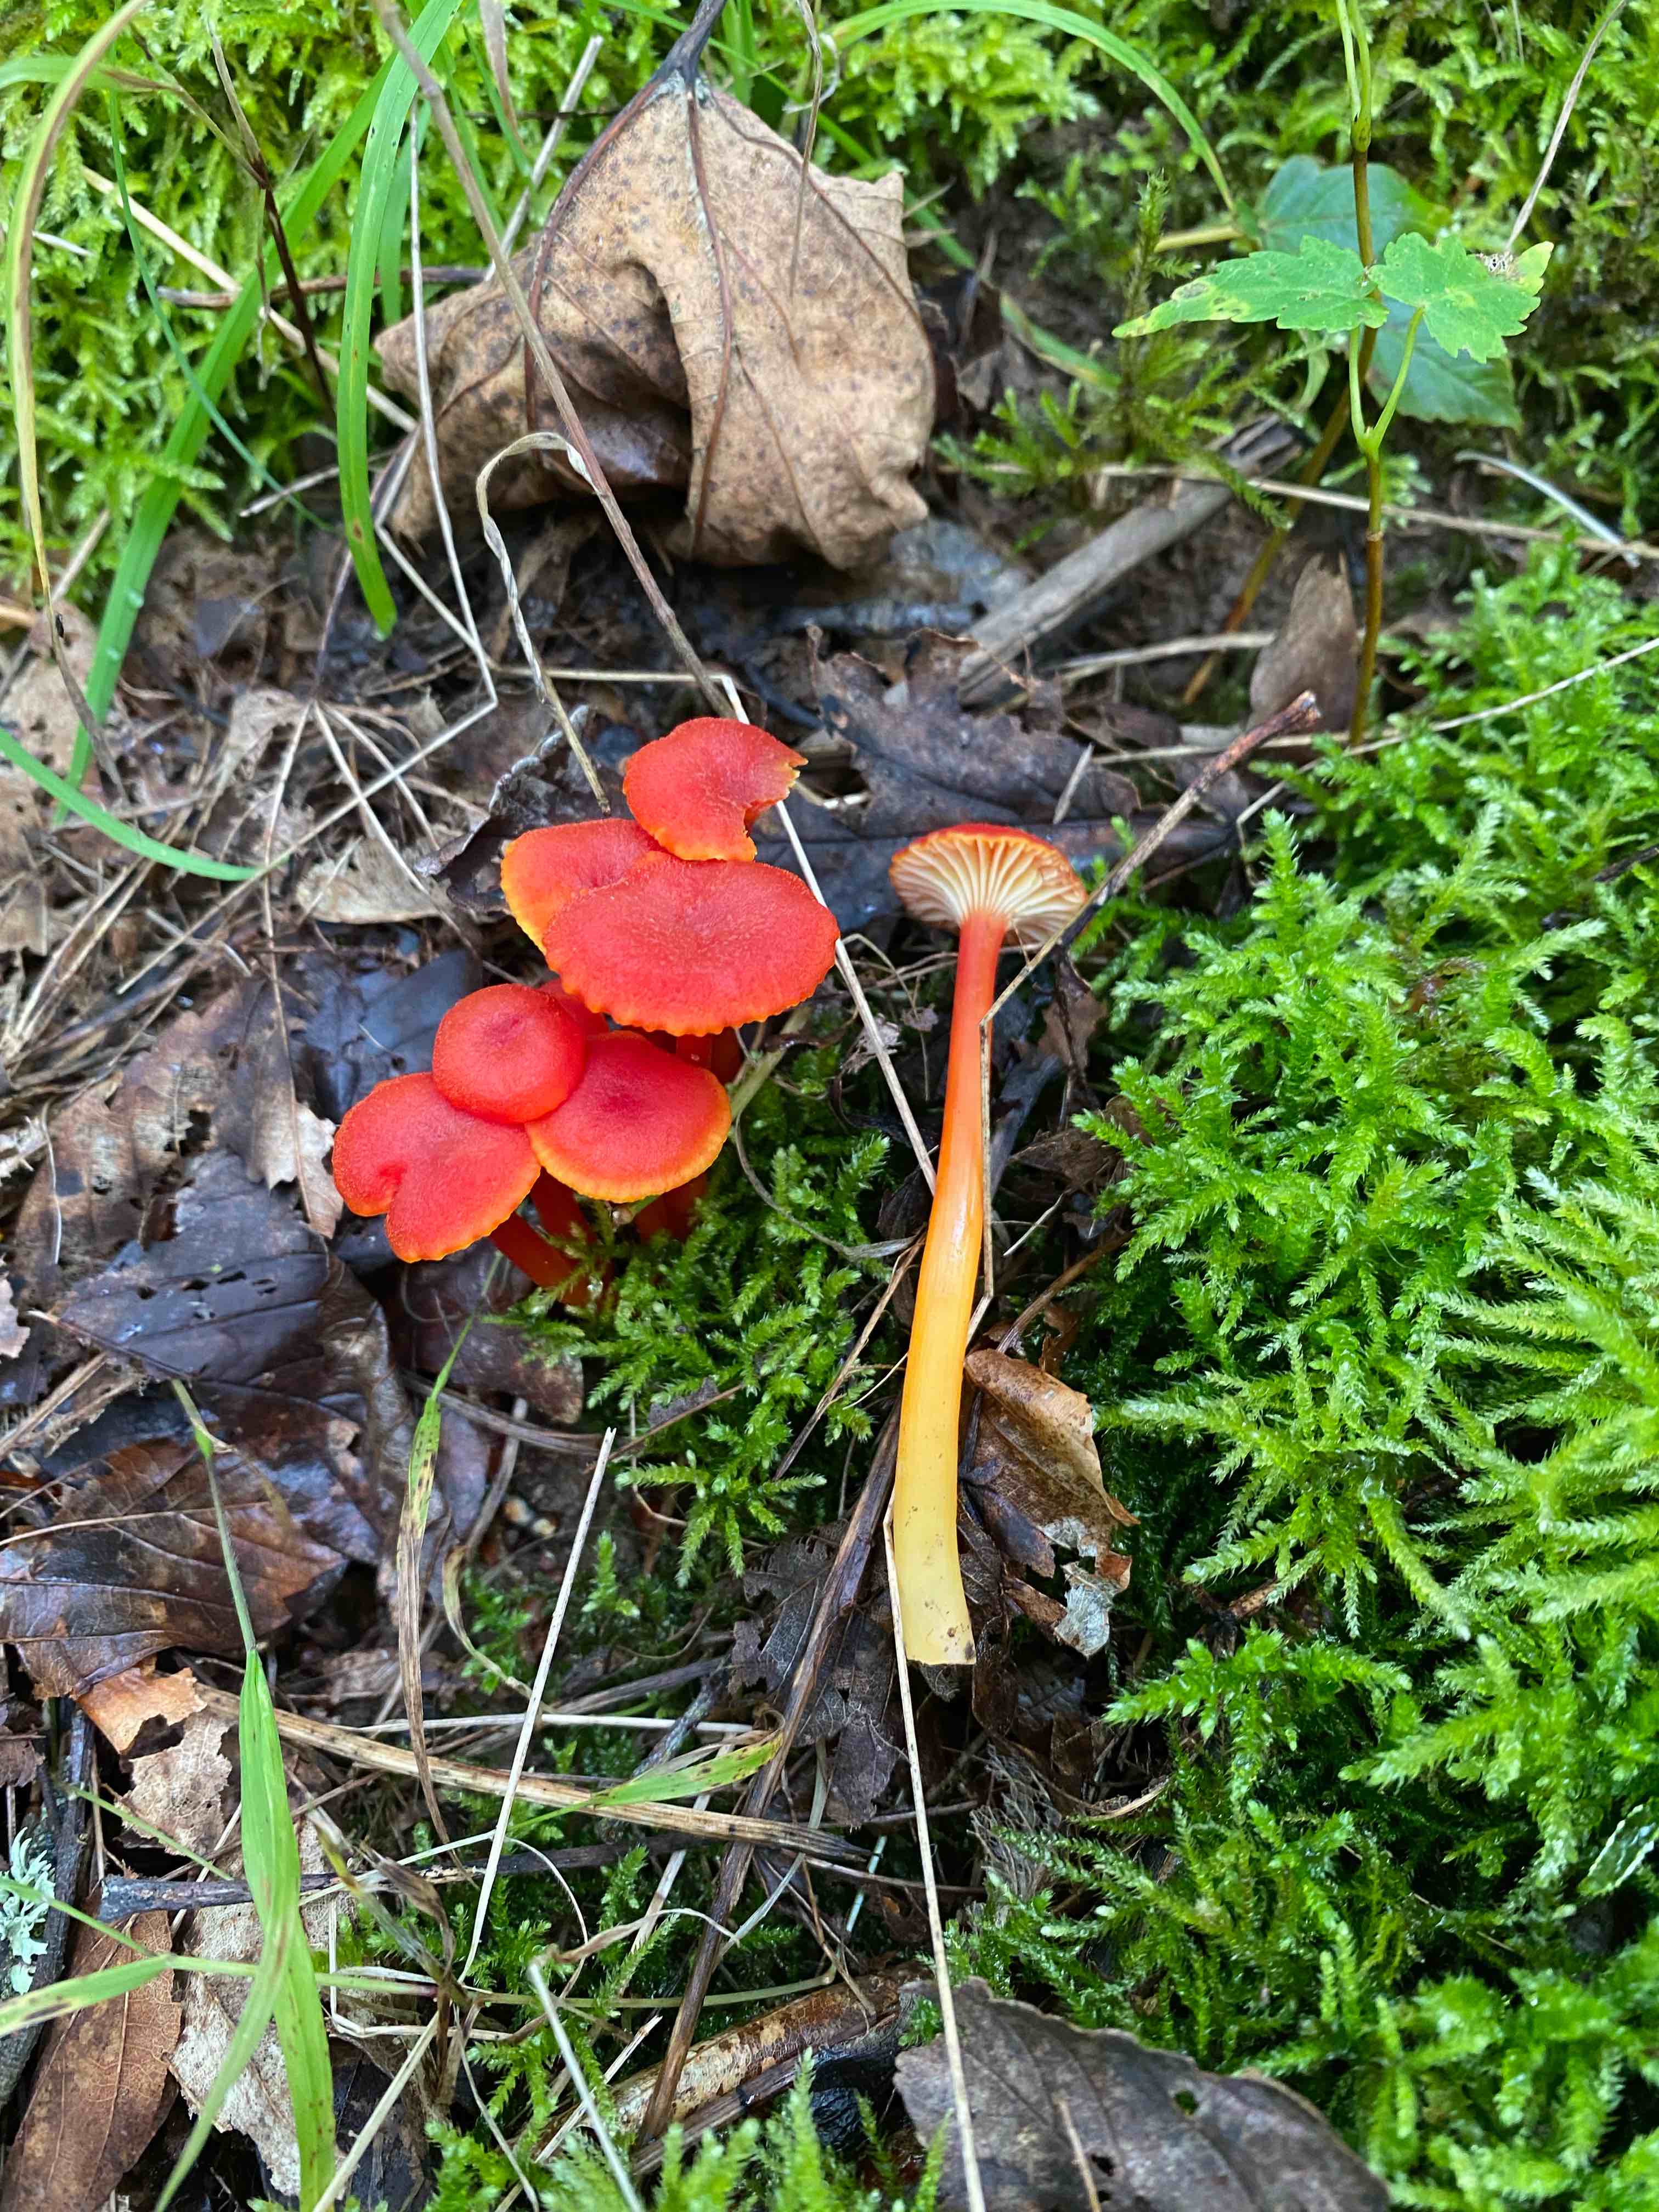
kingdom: Fungi
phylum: Basidiomycota
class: Agaricomycetes
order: Agaricales
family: Hygrophoraceae
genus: Hygrocybe
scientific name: Hygrocybe cantharellus
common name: kantarel-vokshat
